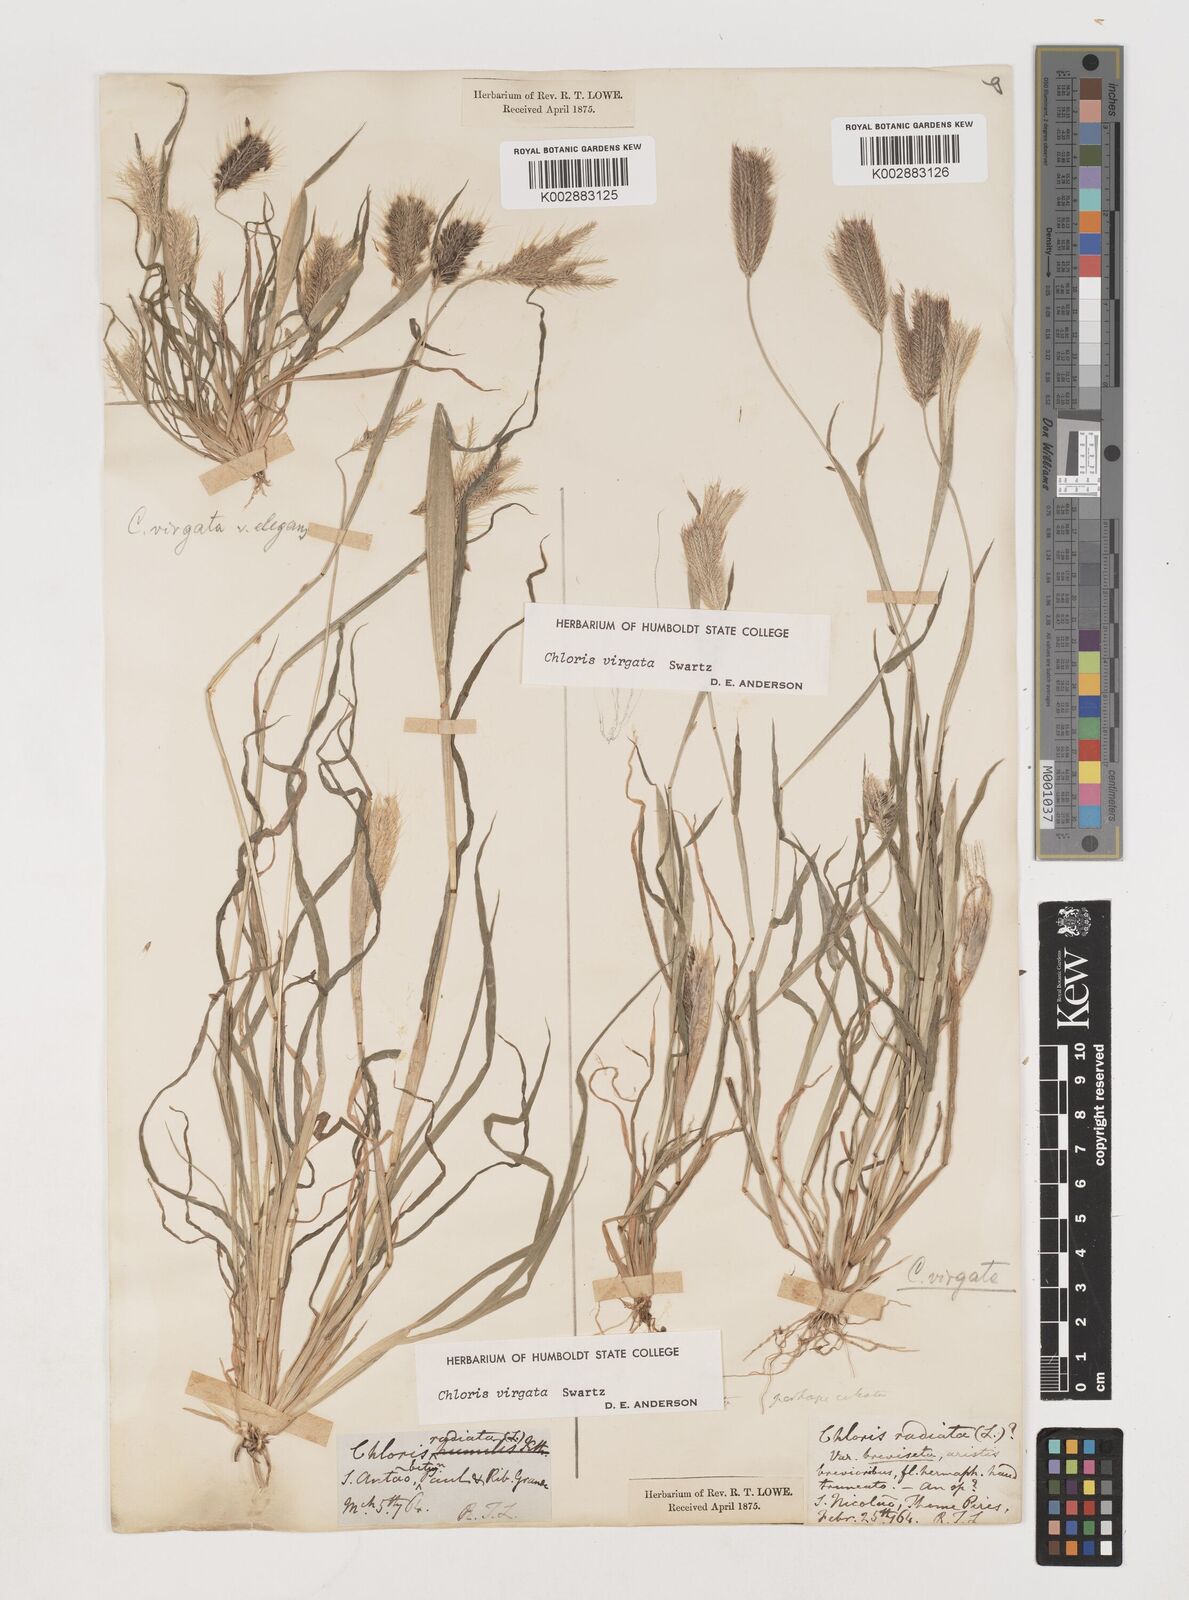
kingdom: Plantae
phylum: Tracheophyta
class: Liliopsida
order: Poales
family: Poaceae
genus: Chloris
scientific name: Chloris virgata
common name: Feathery rhodes-grass
